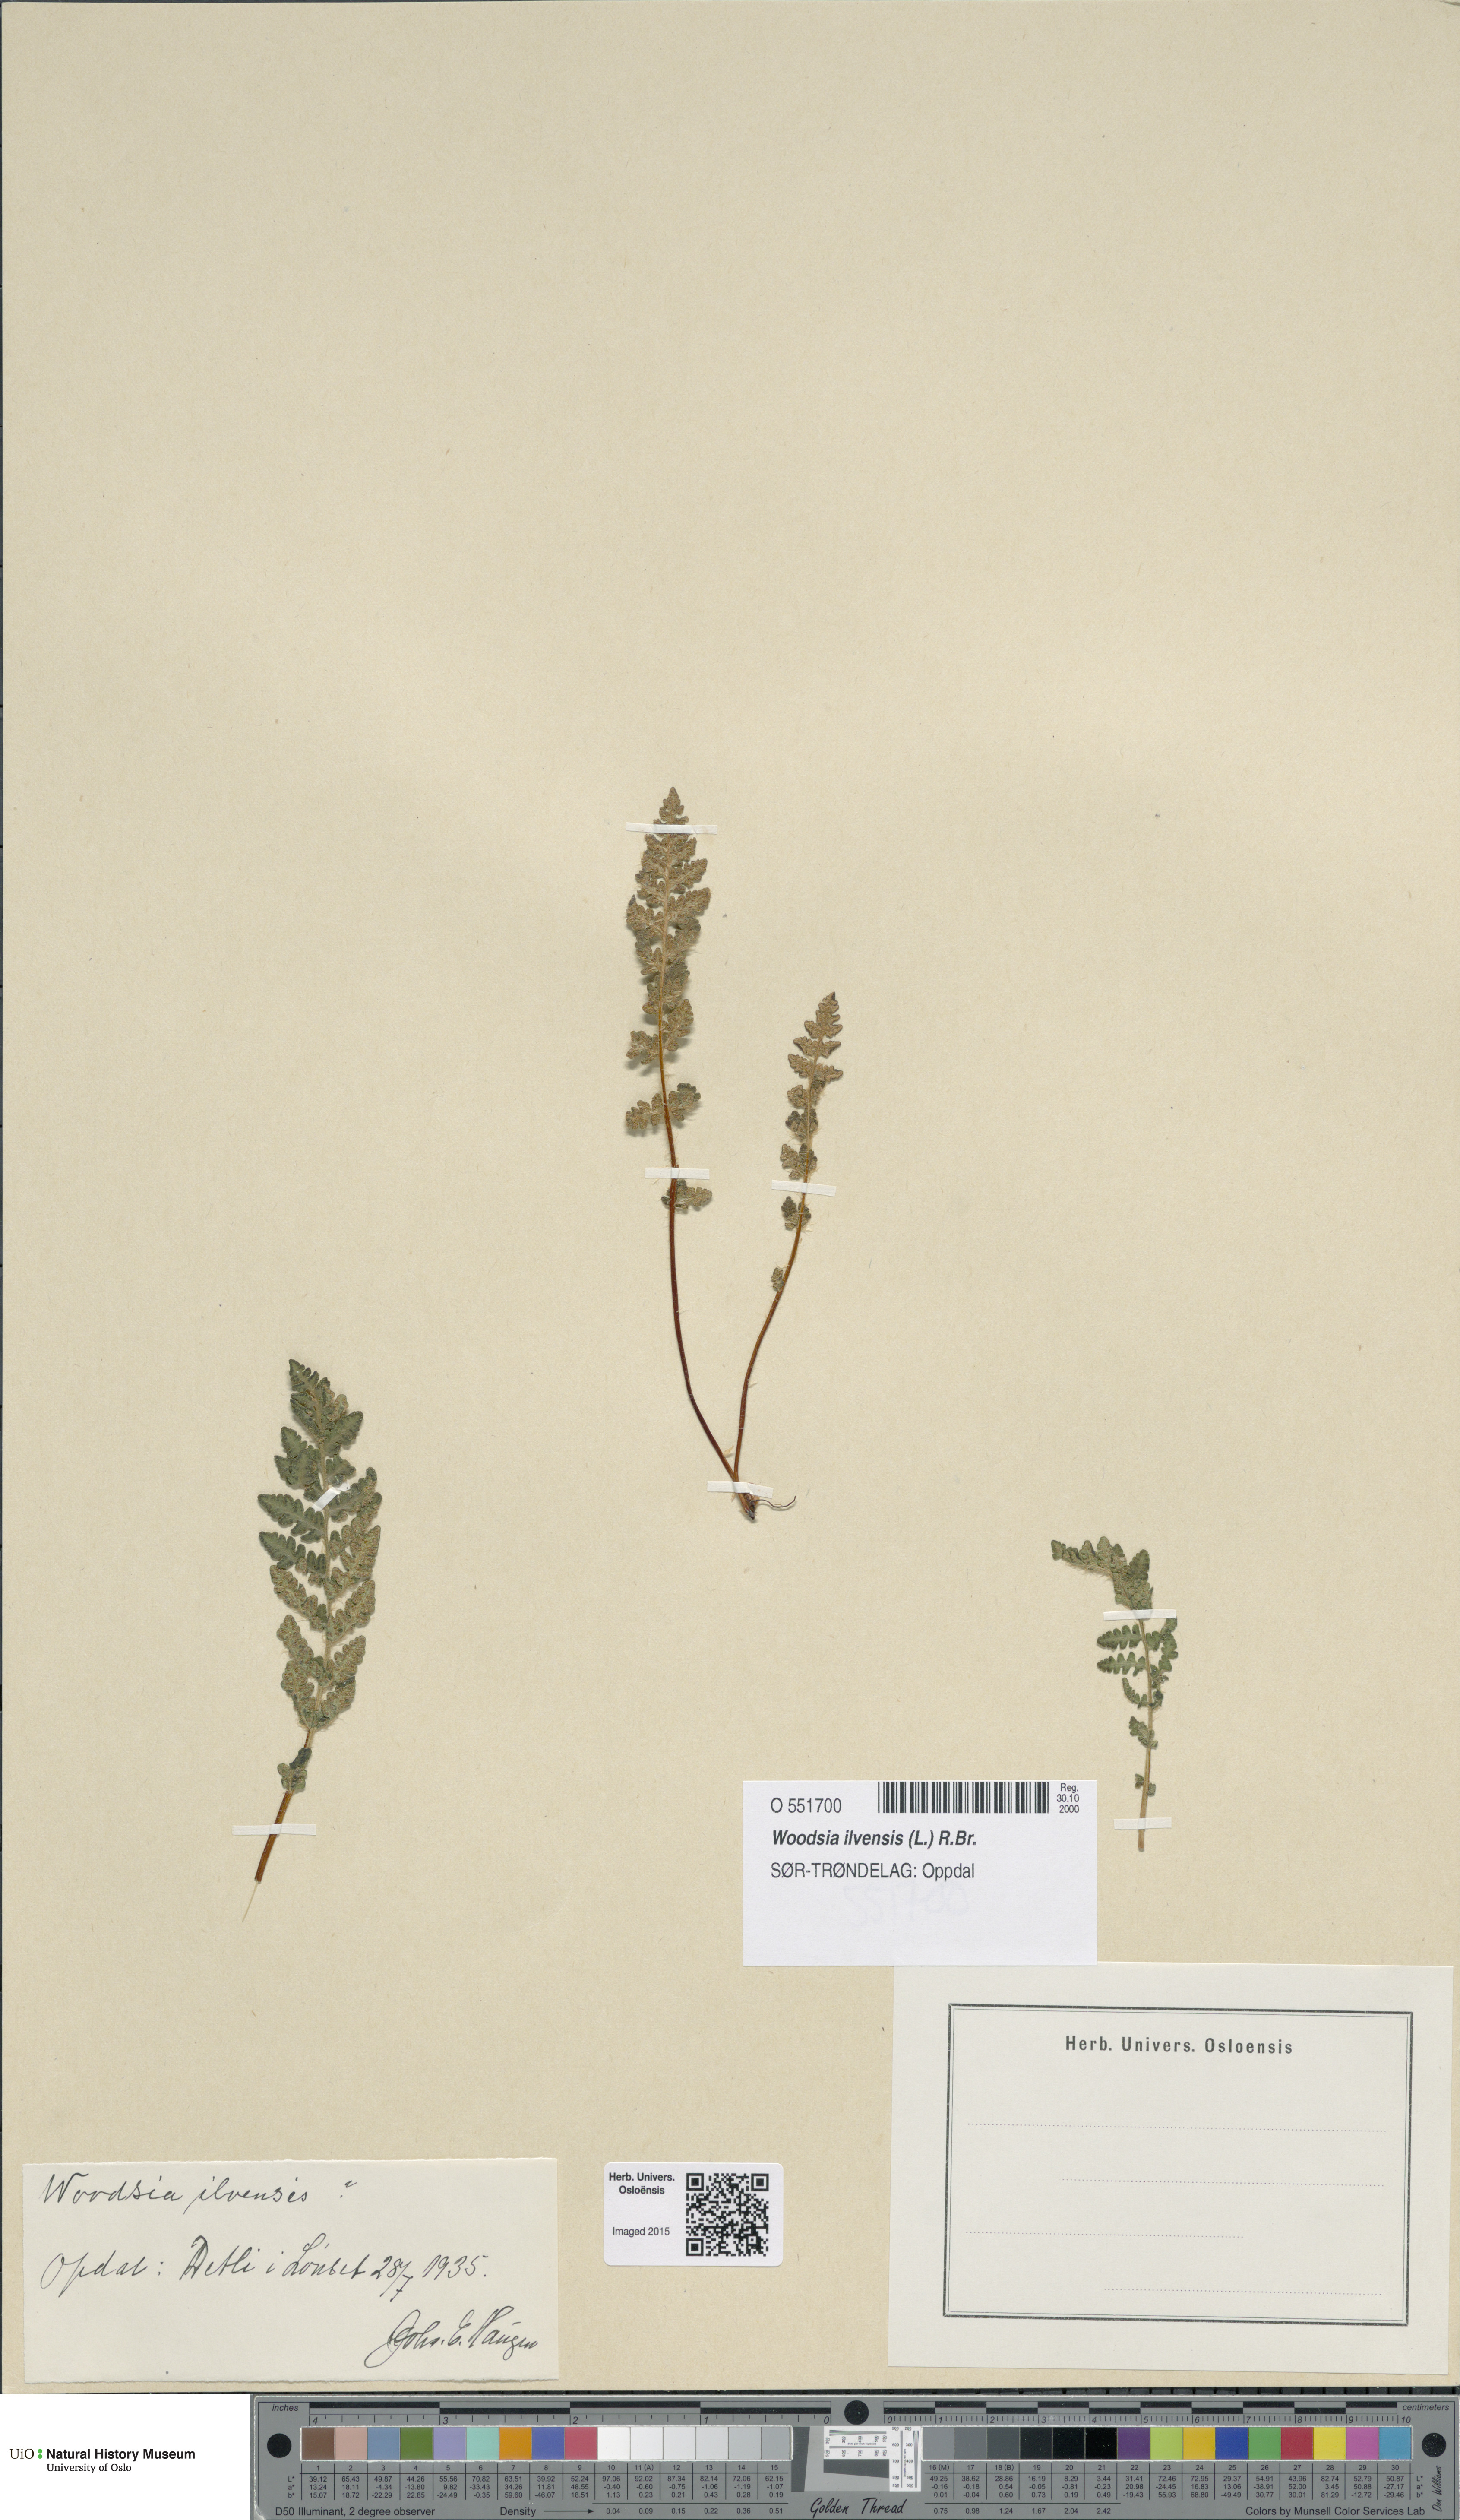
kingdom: Plantae
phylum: Tracheophyta
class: Polypodiopsida
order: Polypodiales
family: Woodsiaceae
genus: Woodsia
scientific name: Woodsia ilvensis
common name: Fragrant woodsia
